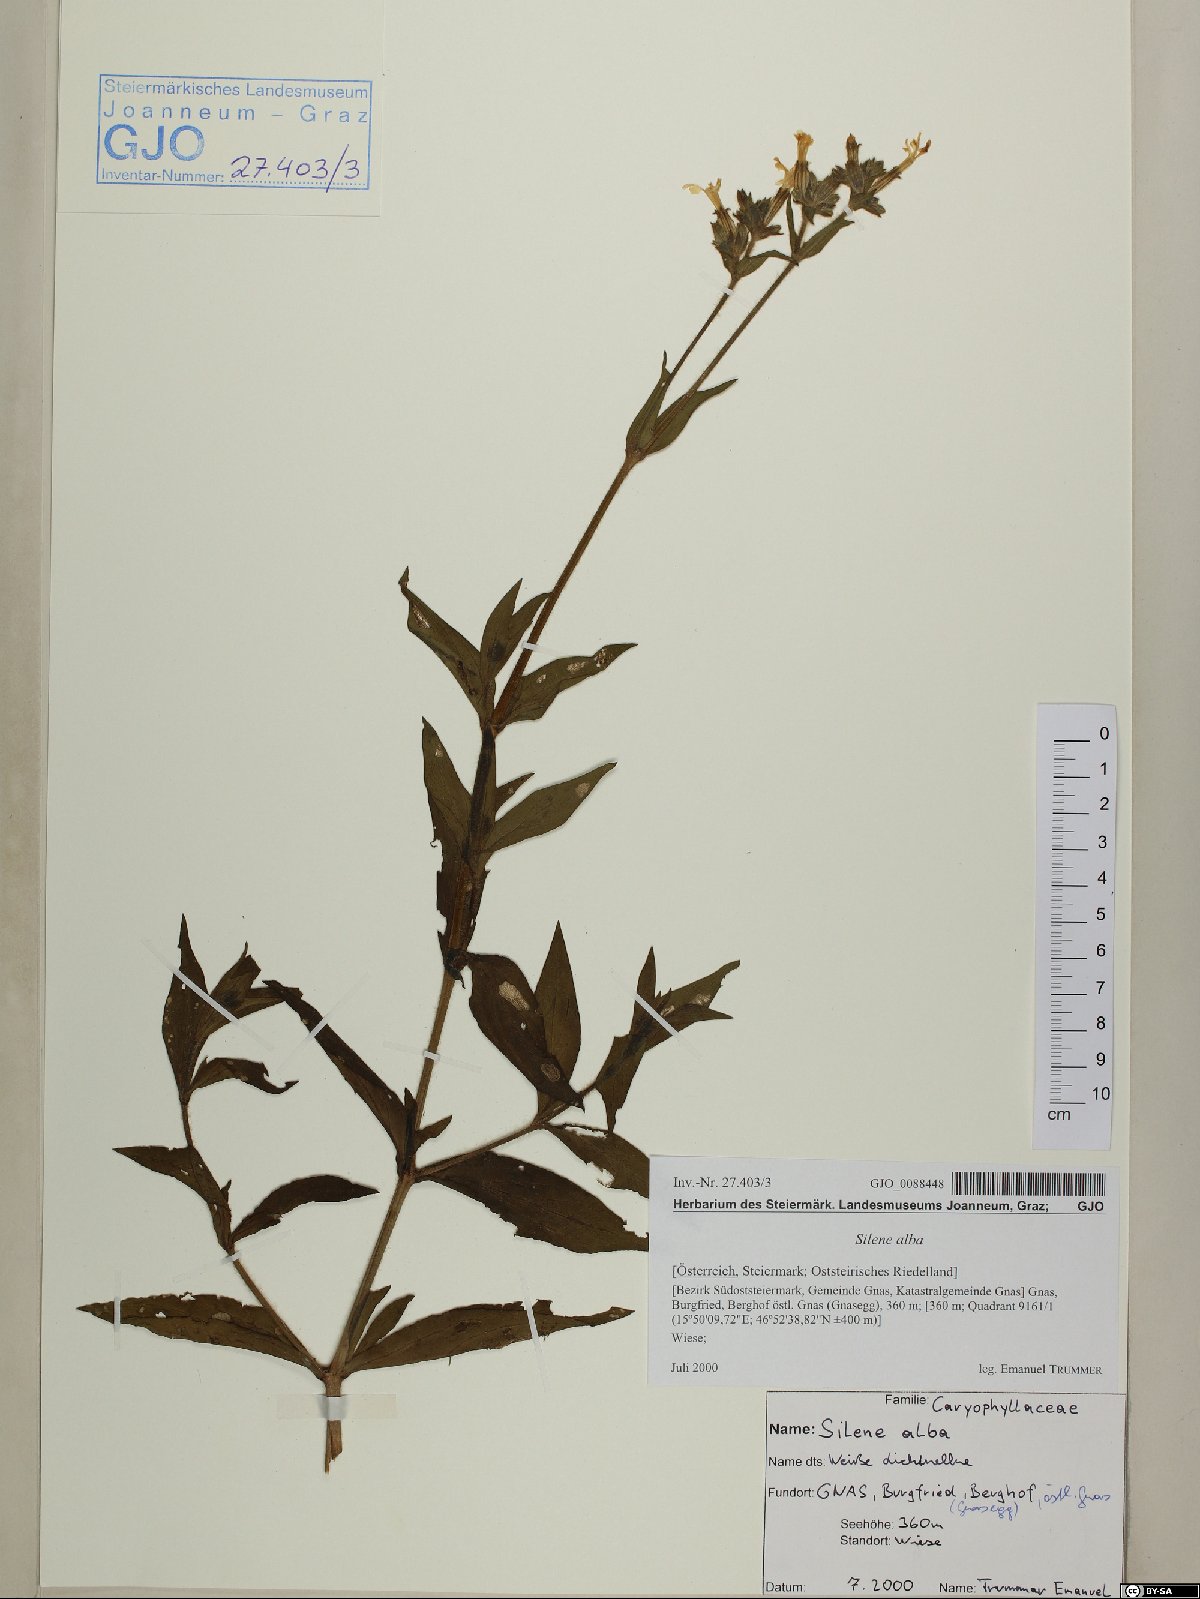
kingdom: Plantae
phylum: Tracheophyta
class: Magnoliopsida
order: Caryophyllales
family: Caryophyllaceae
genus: Silene
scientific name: Silene latifolia
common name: White campion
